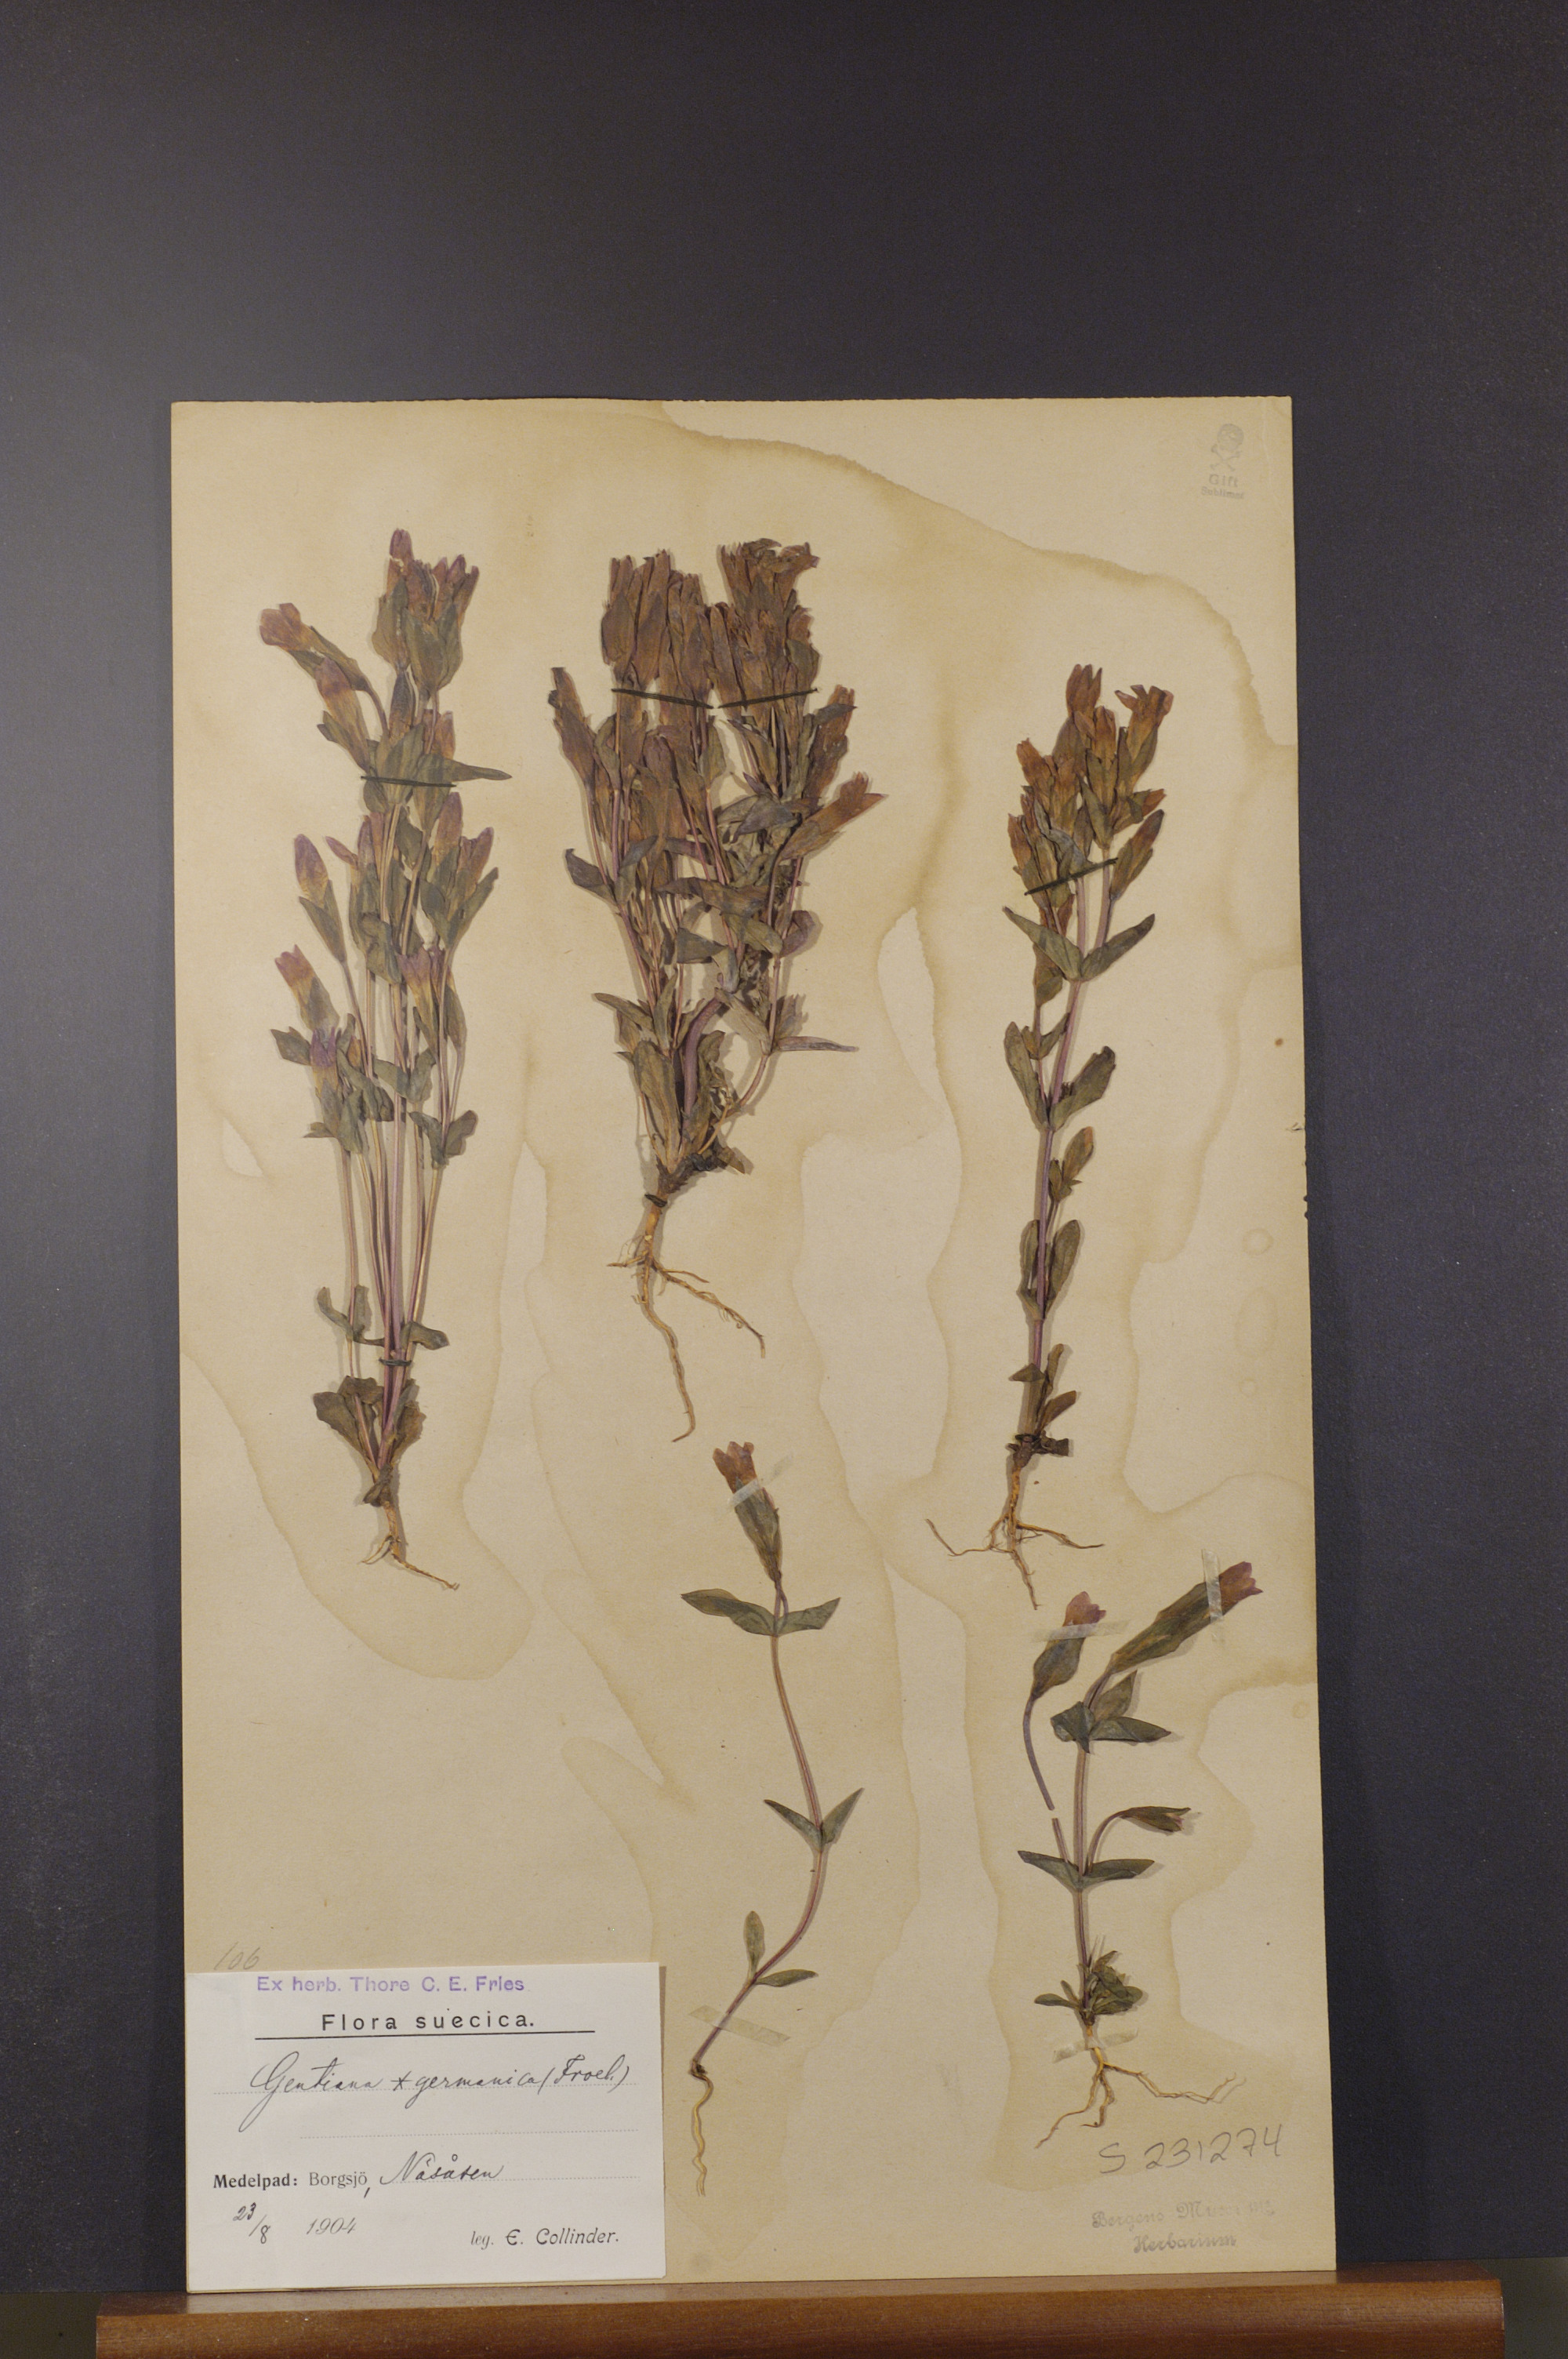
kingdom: Plantae
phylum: Tracheophyta
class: Magnoliopsida
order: Gentianales
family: Gentianaceae
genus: Gentianella
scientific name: Gentianella campestris
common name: Field gentian
